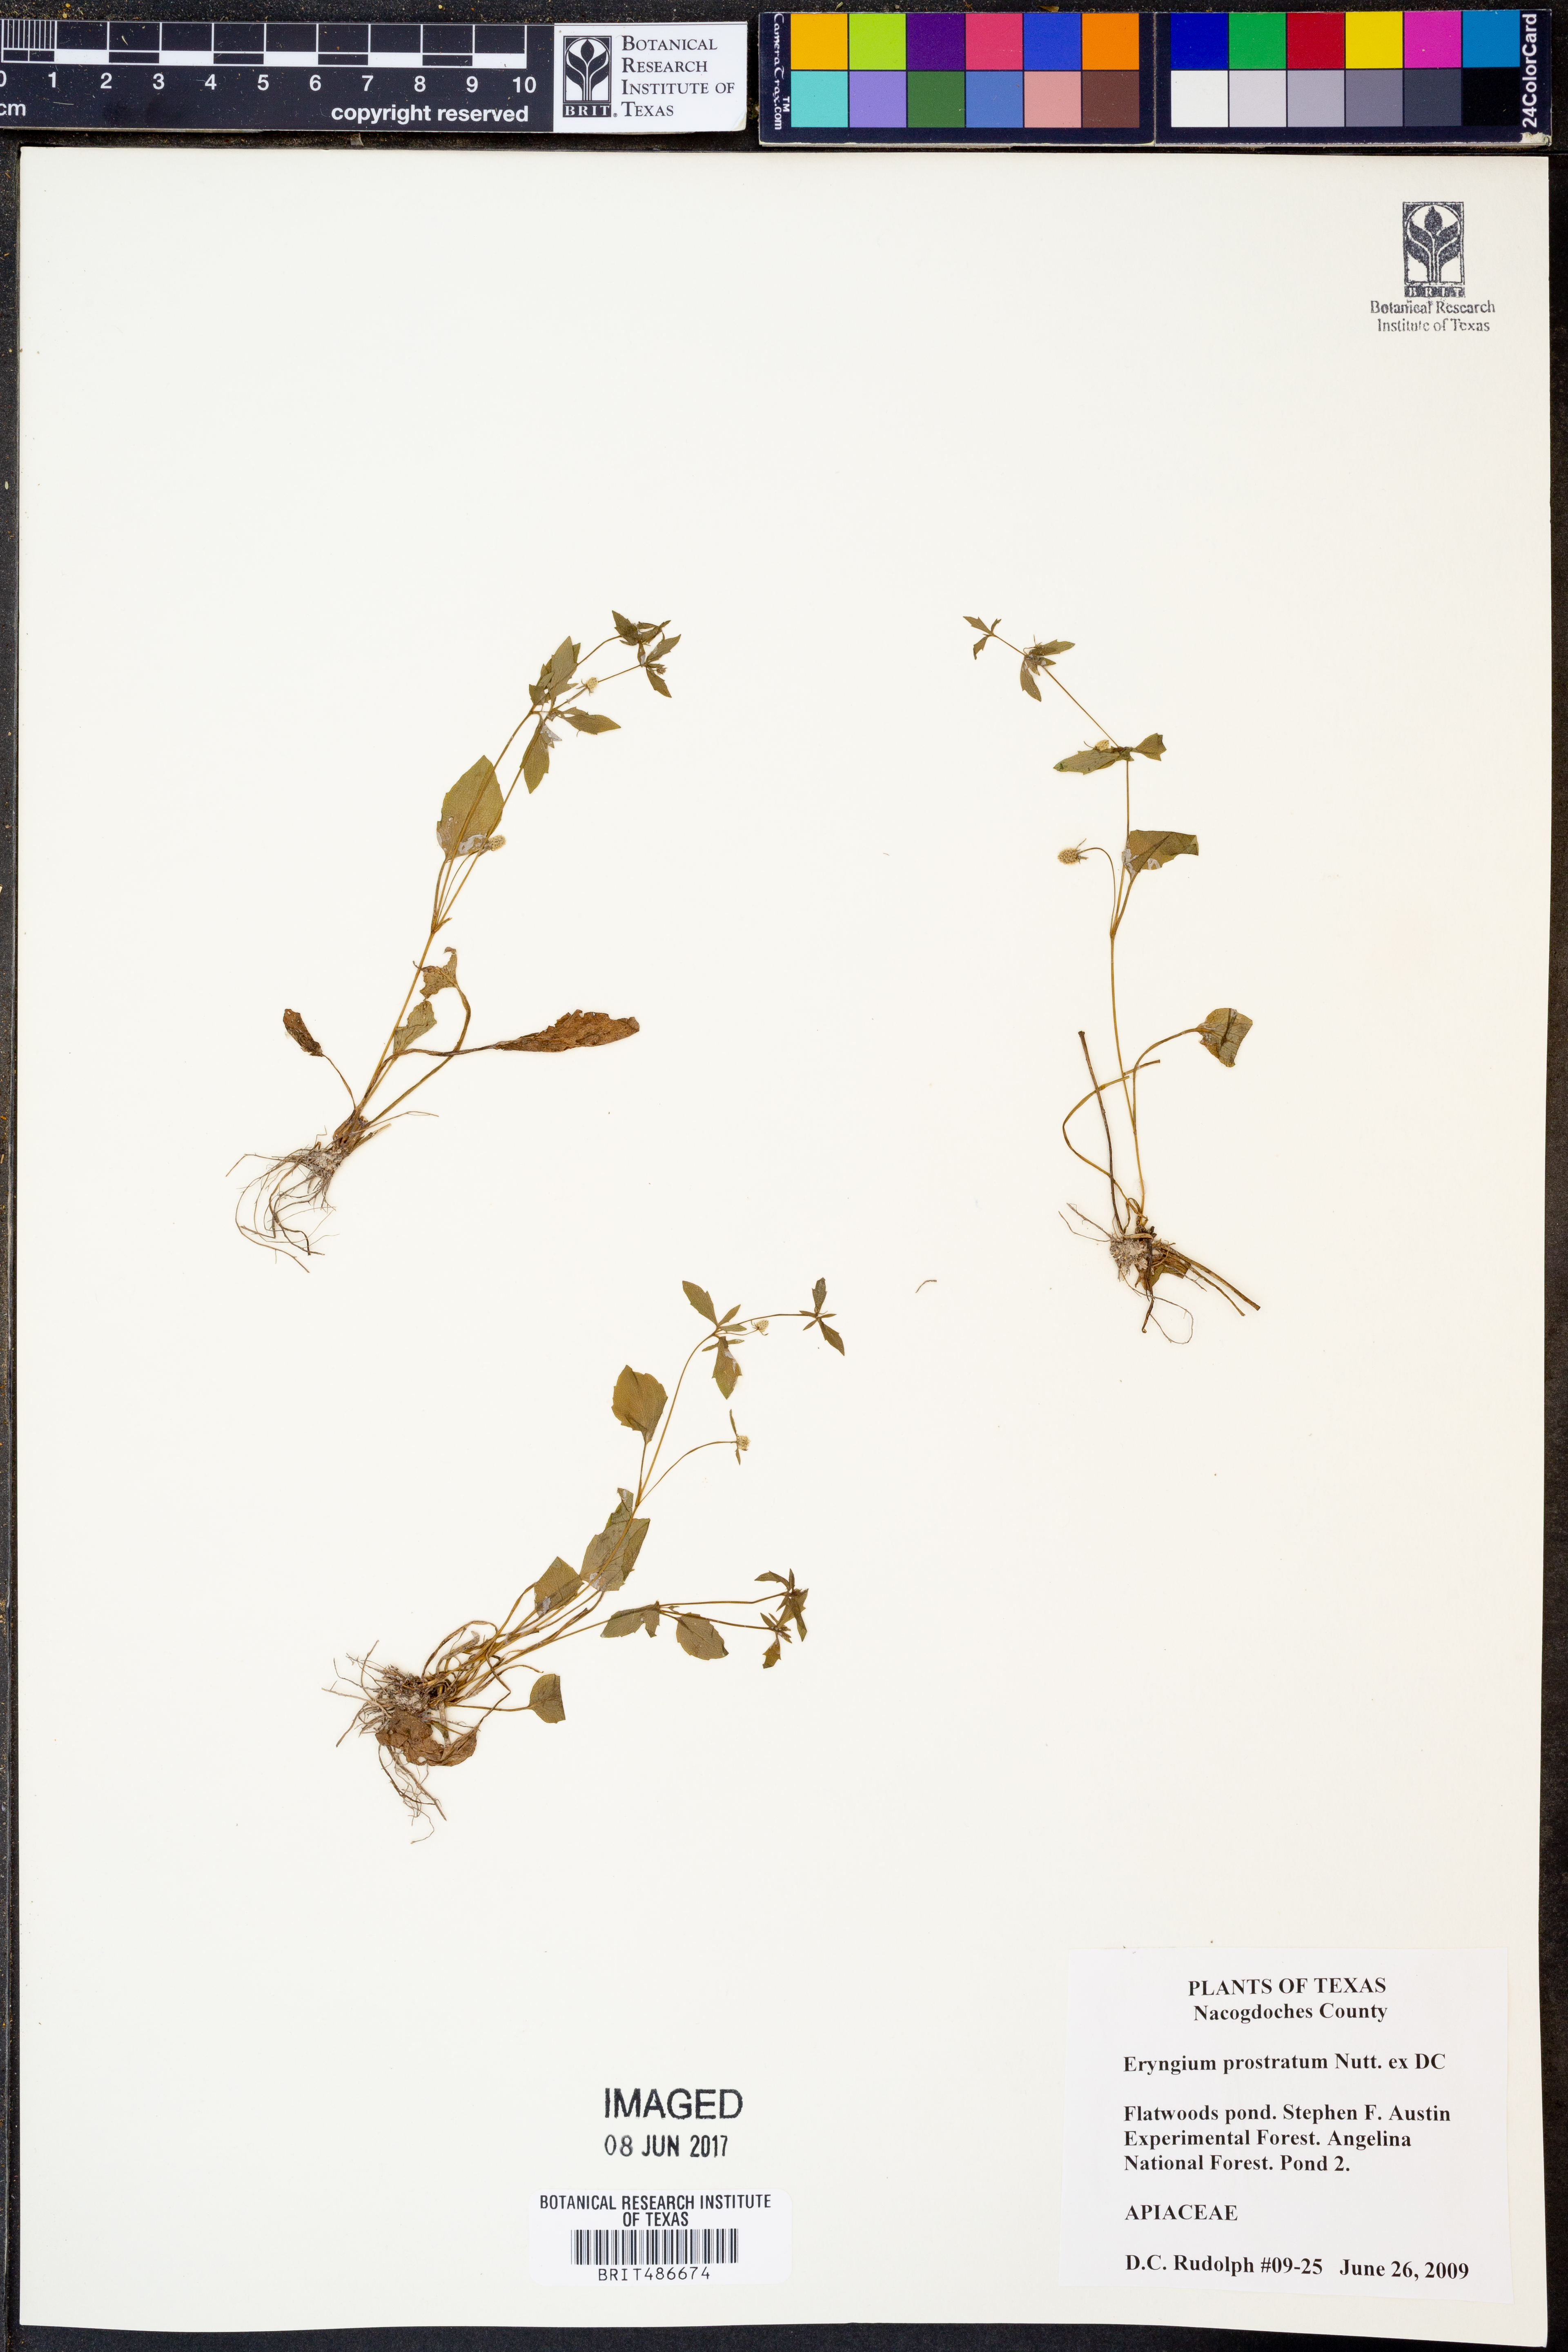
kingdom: Plantae
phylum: Tracheophyta
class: Magnoliopsida
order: Apiales
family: Apiaceae
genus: Eryngium
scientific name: Eryngium prostratum
